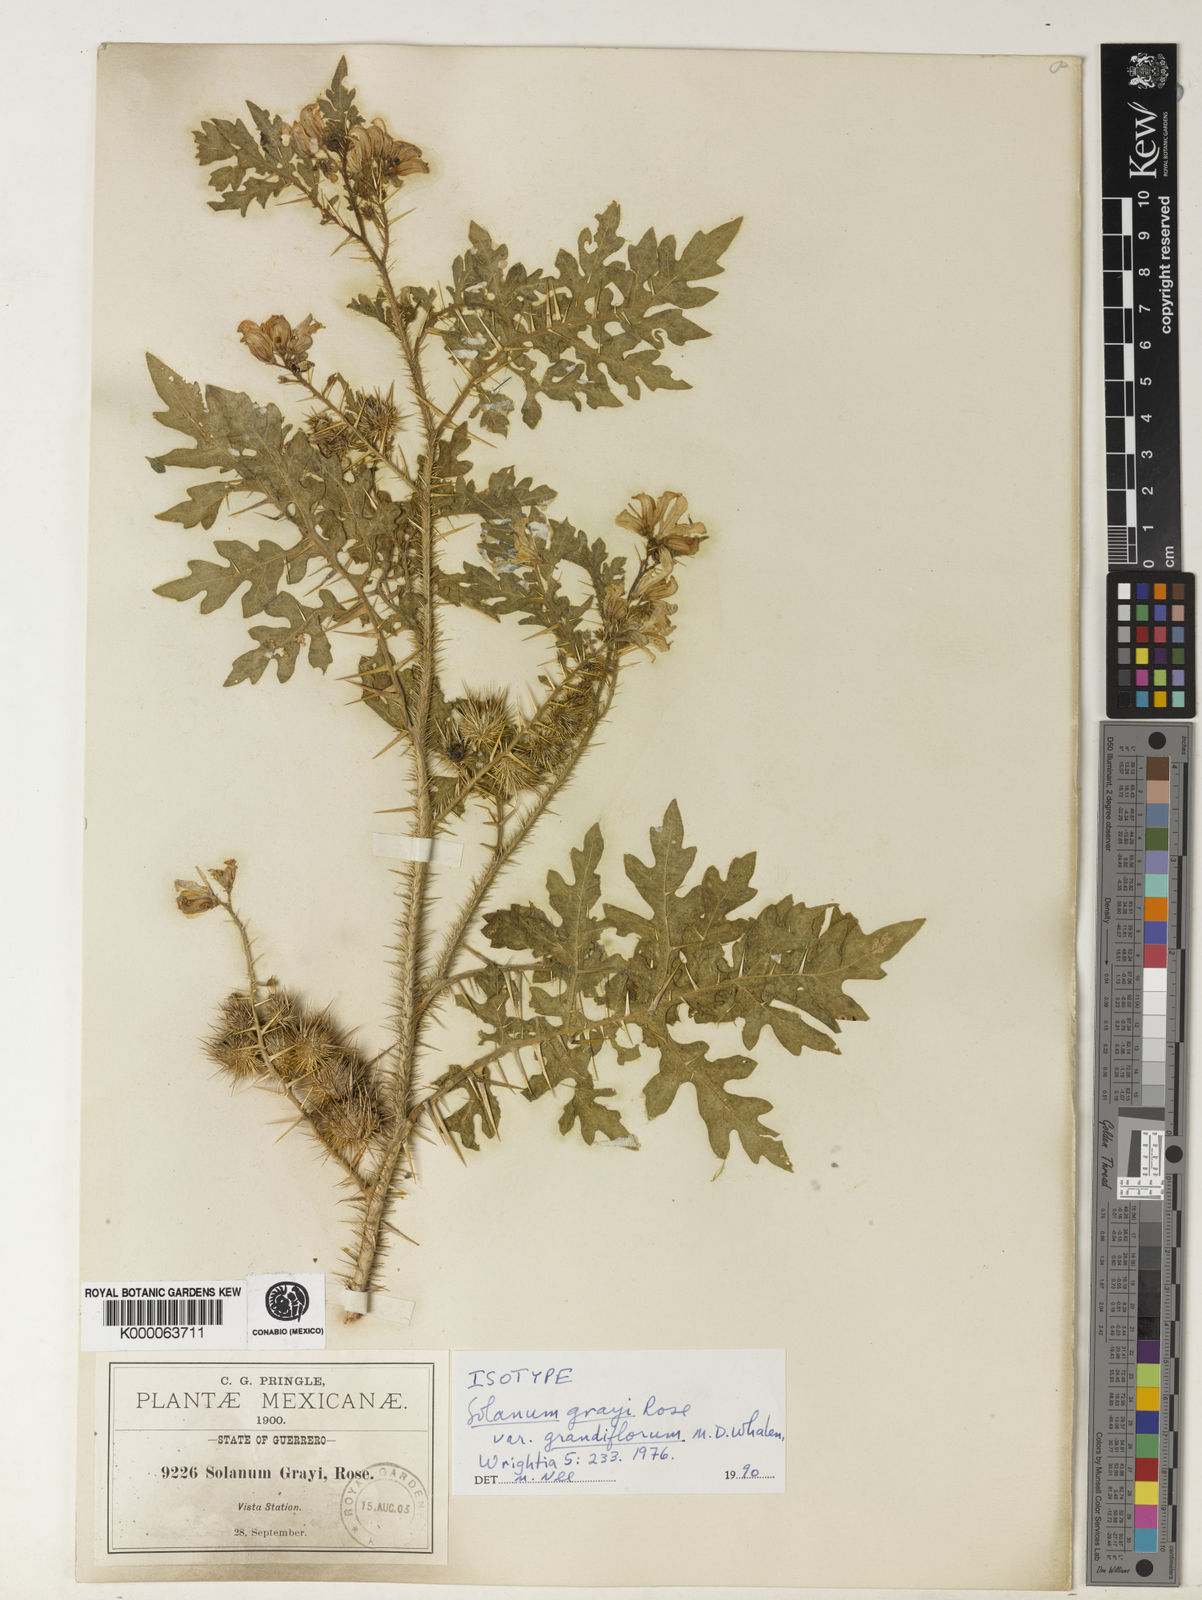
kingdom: Plantae
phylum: Tracheophyta
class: Magnoliopsida
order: Solanales
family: Solanaceae
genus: Solanum
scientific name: Solanum grayi
